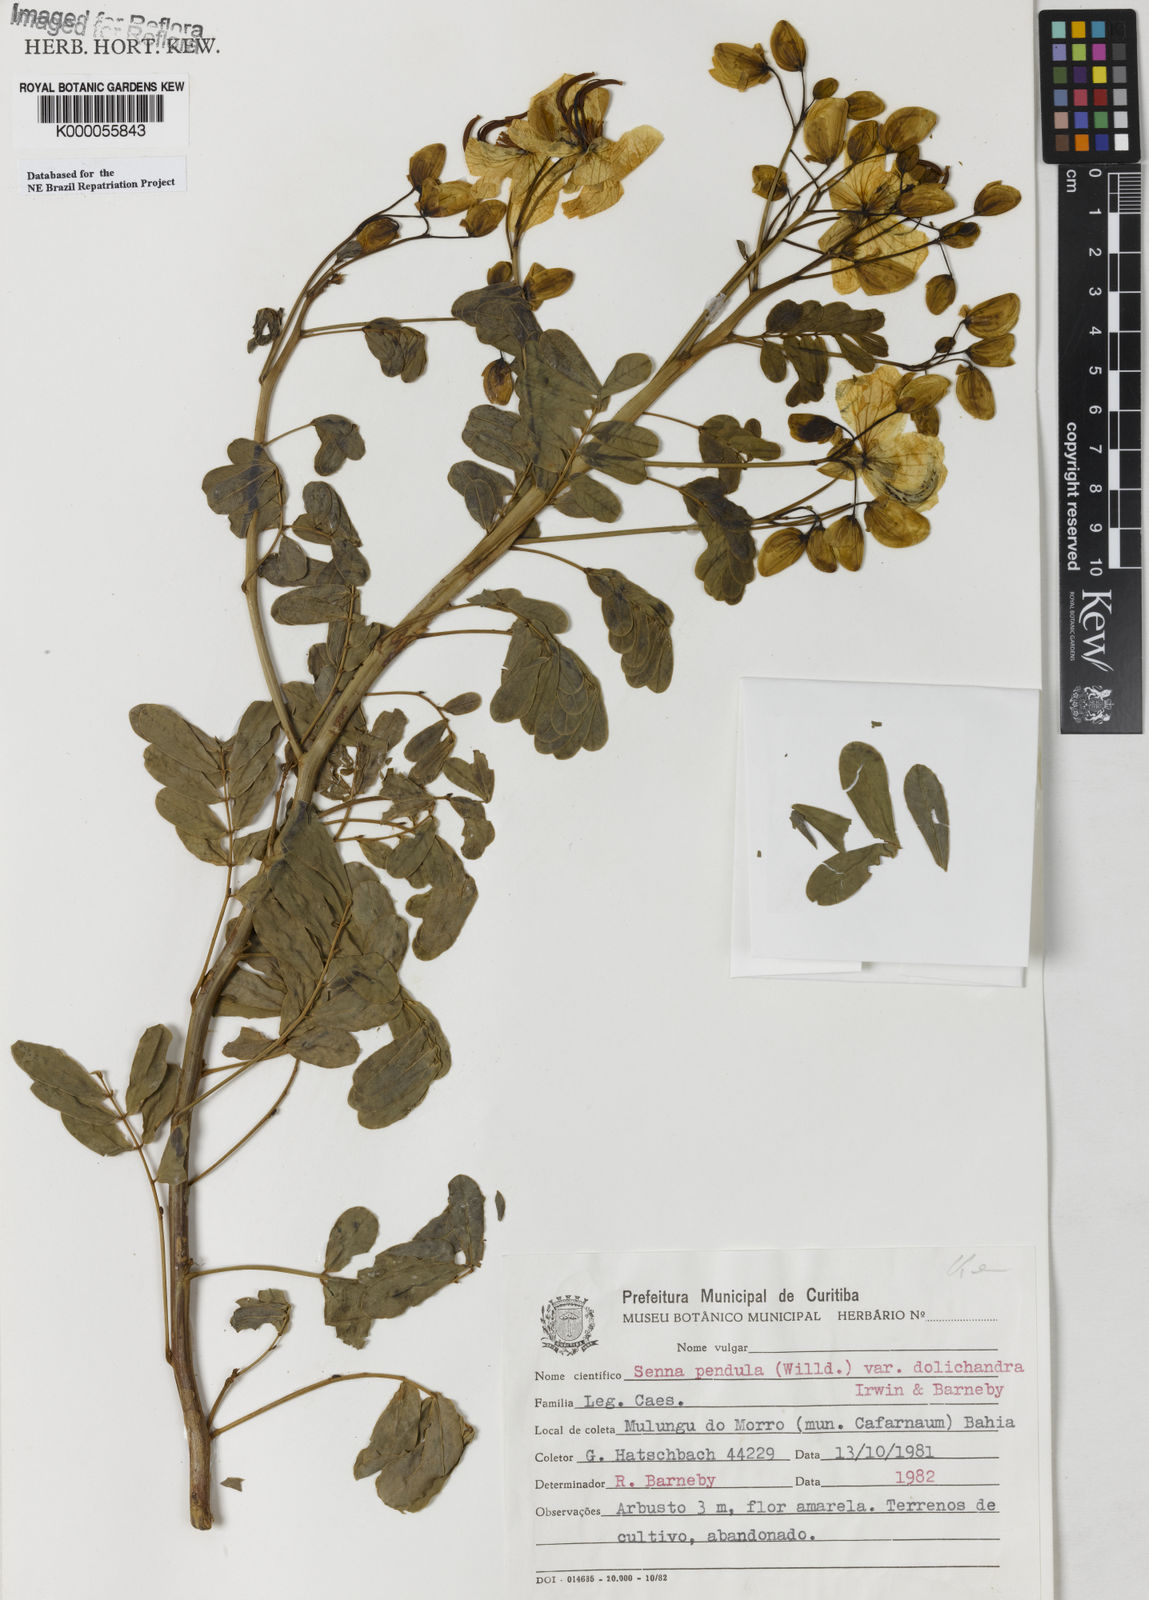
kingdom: Plantae
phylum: Tracheophyta
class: Magnoliopsida
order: Fabales
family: Fabaceae
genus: Senna
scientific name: Senna pendula
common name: Easter cassia
